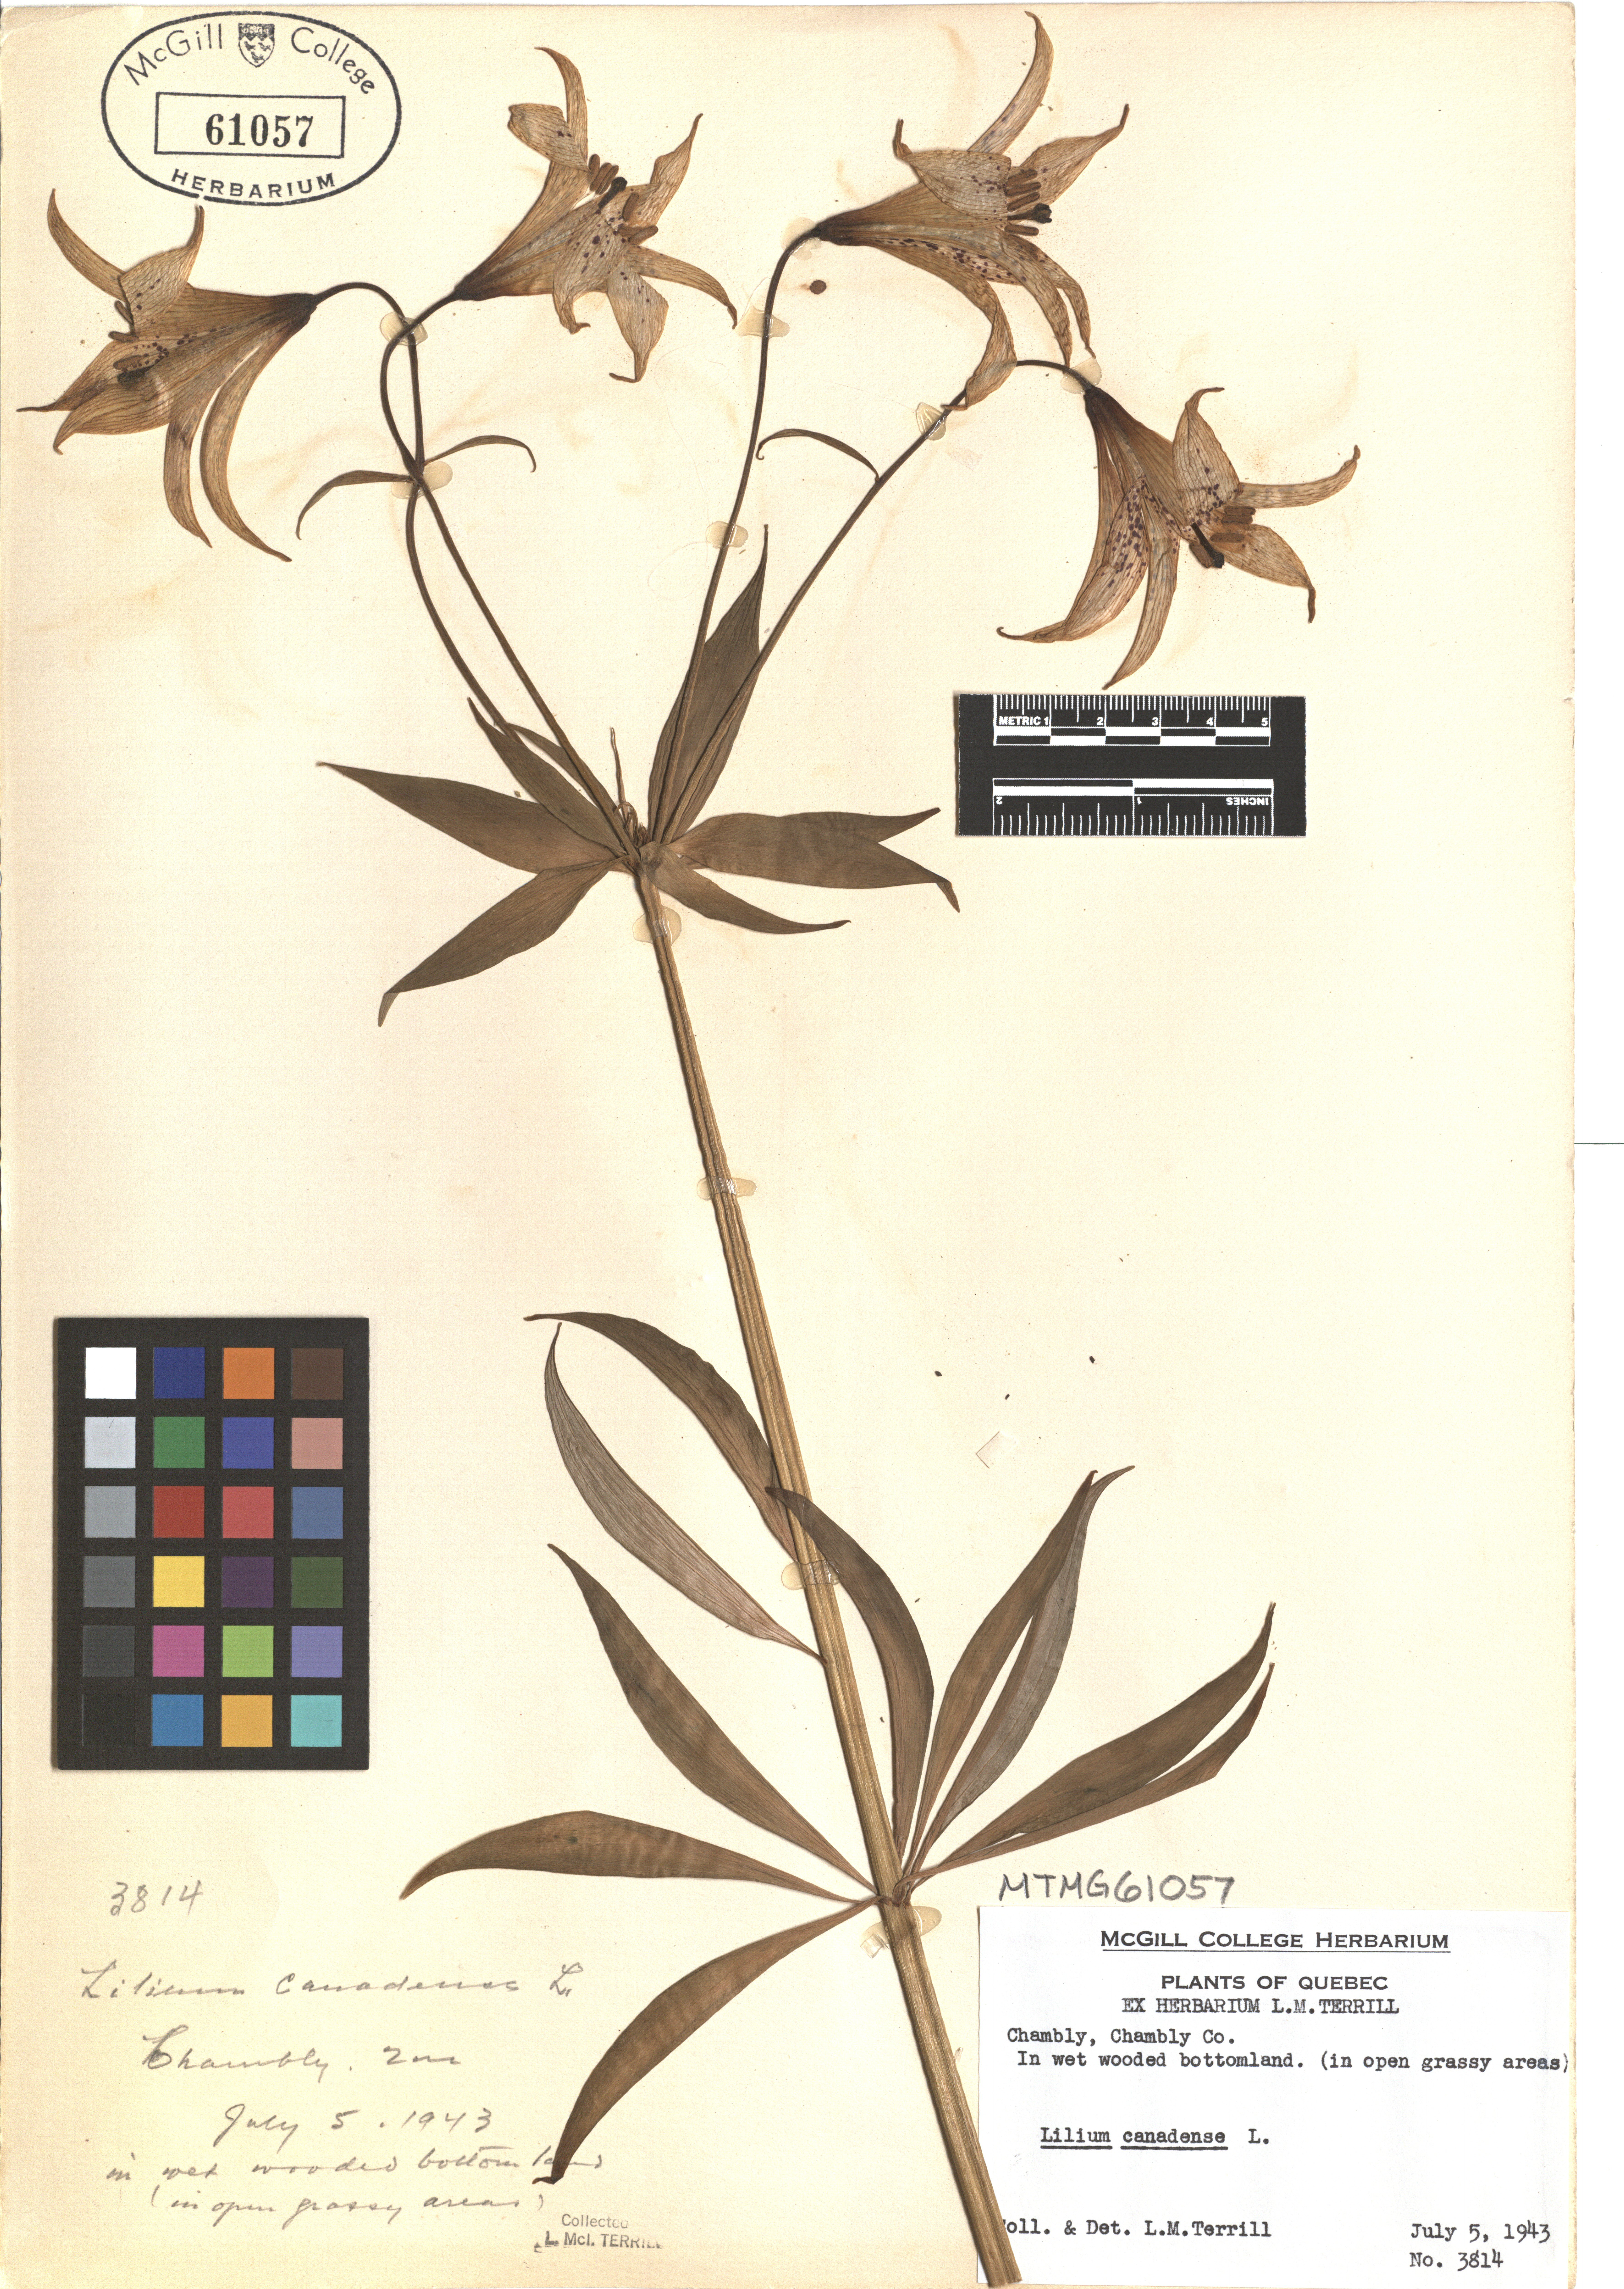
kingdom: Plantae
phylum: Tracheophyta
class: Liliopsida
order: Liliales
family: Liliaceae
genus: Lilium
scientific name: Lilium canadense
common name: Canada lily
